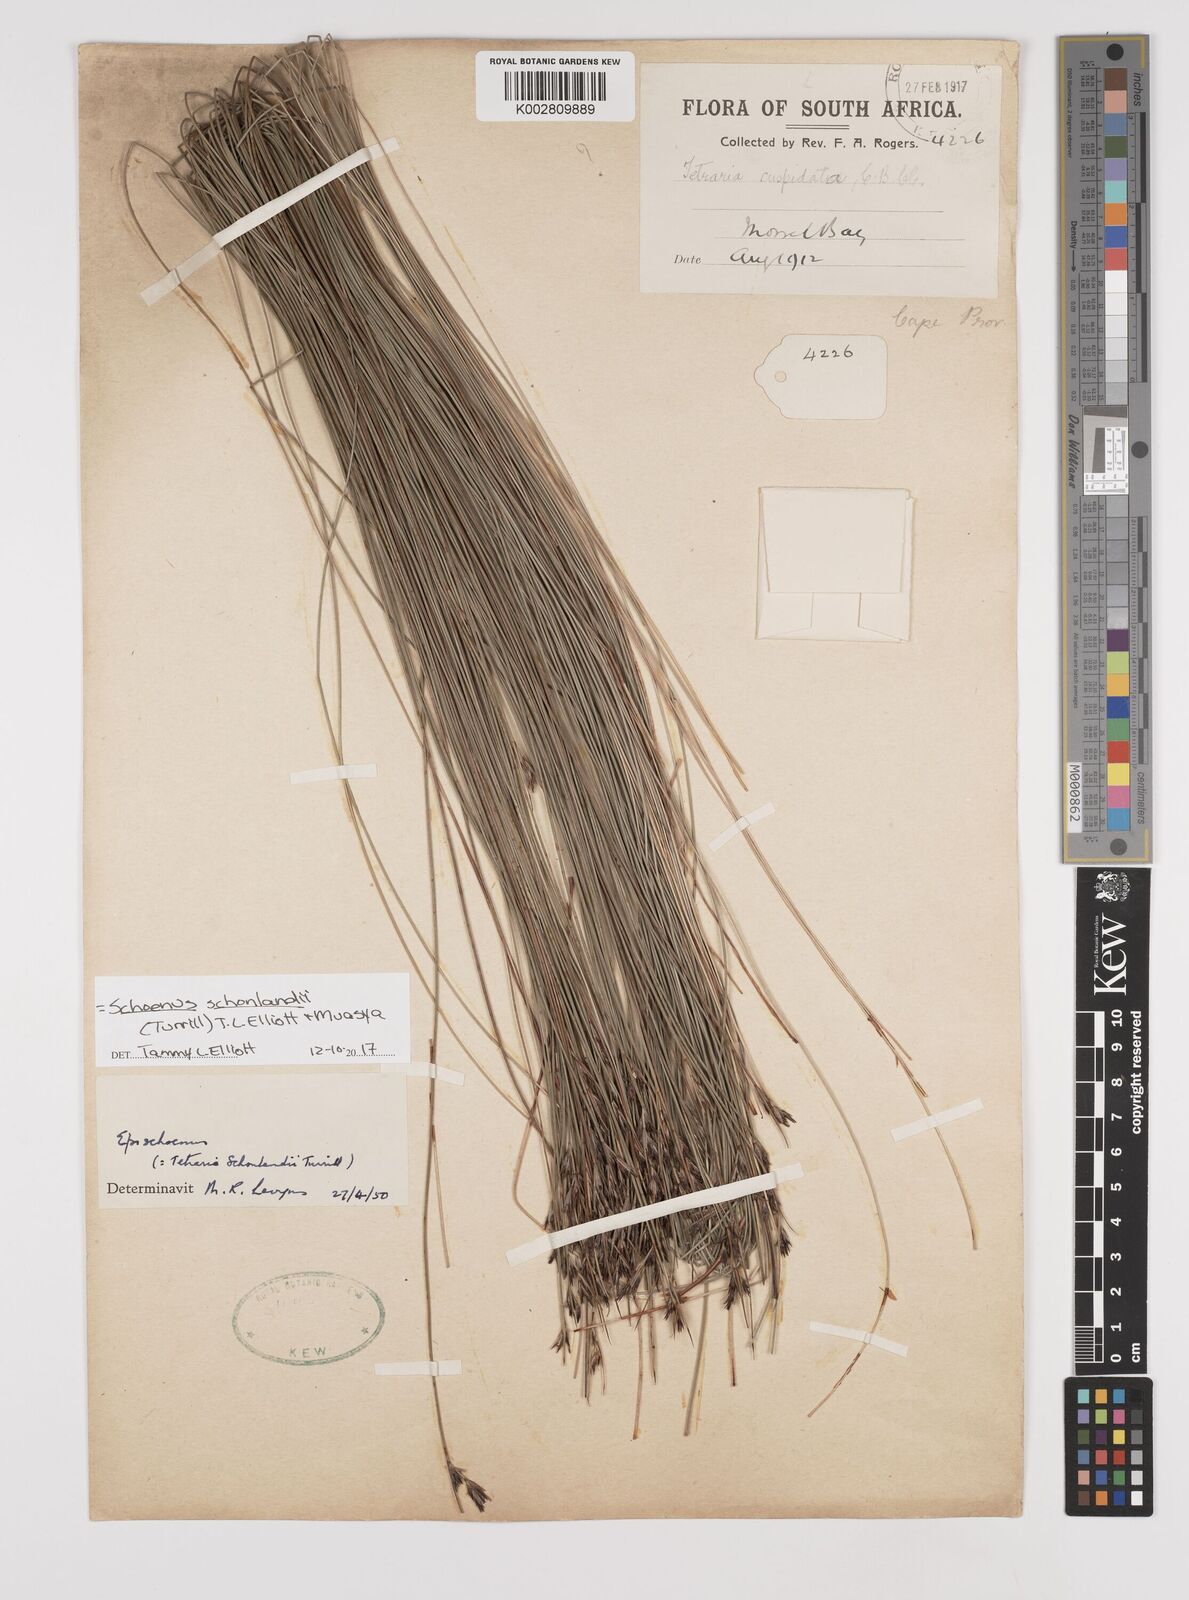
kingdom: Plantae
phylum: Tracheophyta
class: Liliopsida
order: Poales
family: Cyperaceae
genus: Schoenus
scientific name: Schoenus
